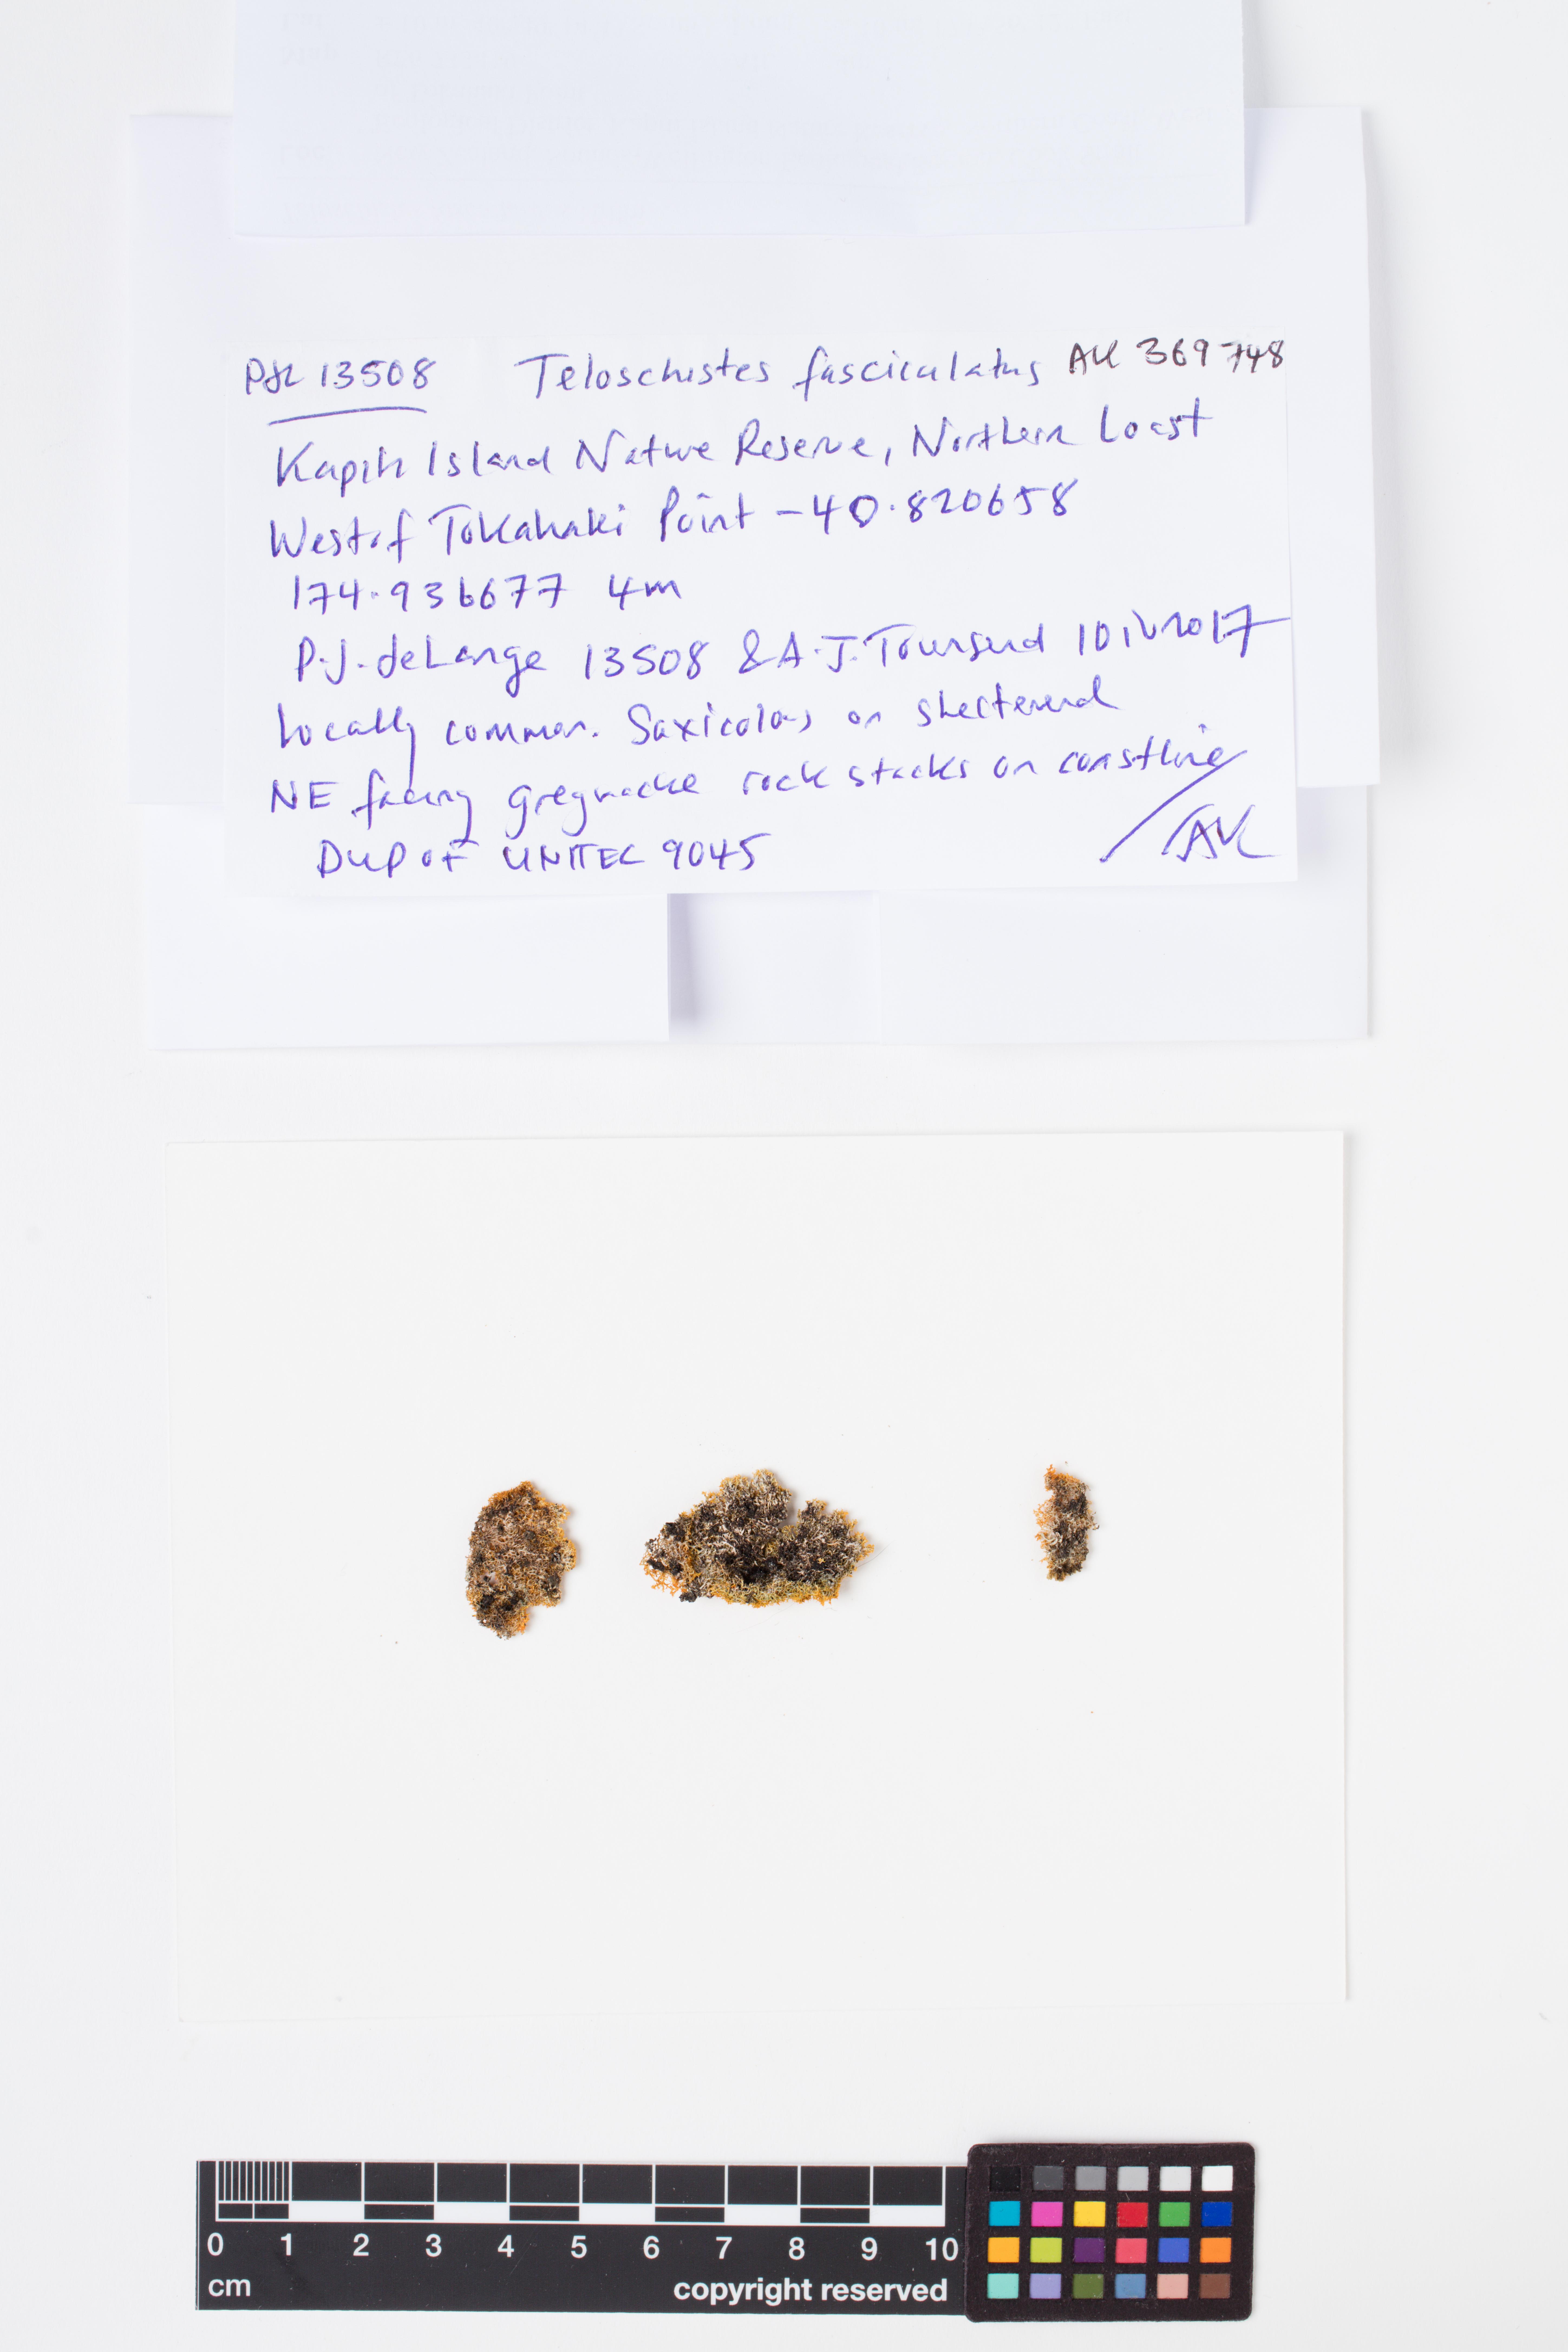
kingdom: Fungi
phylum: Ascomycota
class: Lecanoromycetes
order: Teloschistales
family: Teloschistaceae
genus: Teloschistes
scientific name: Teloschistes fasciculatus
